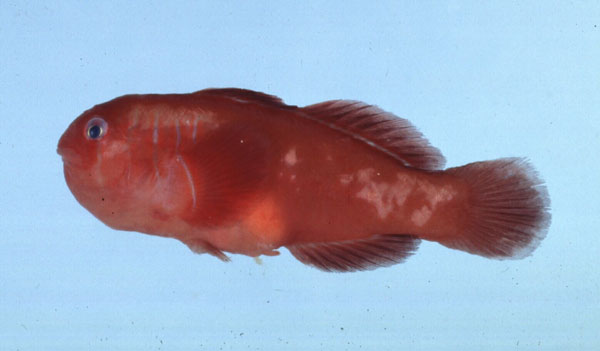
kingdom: Animalia
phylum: Chordata
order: Perciformes
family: Gobiidae
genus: Gobiodon
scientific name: Gobiodon rivulatus
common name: Rippled coralgoby
